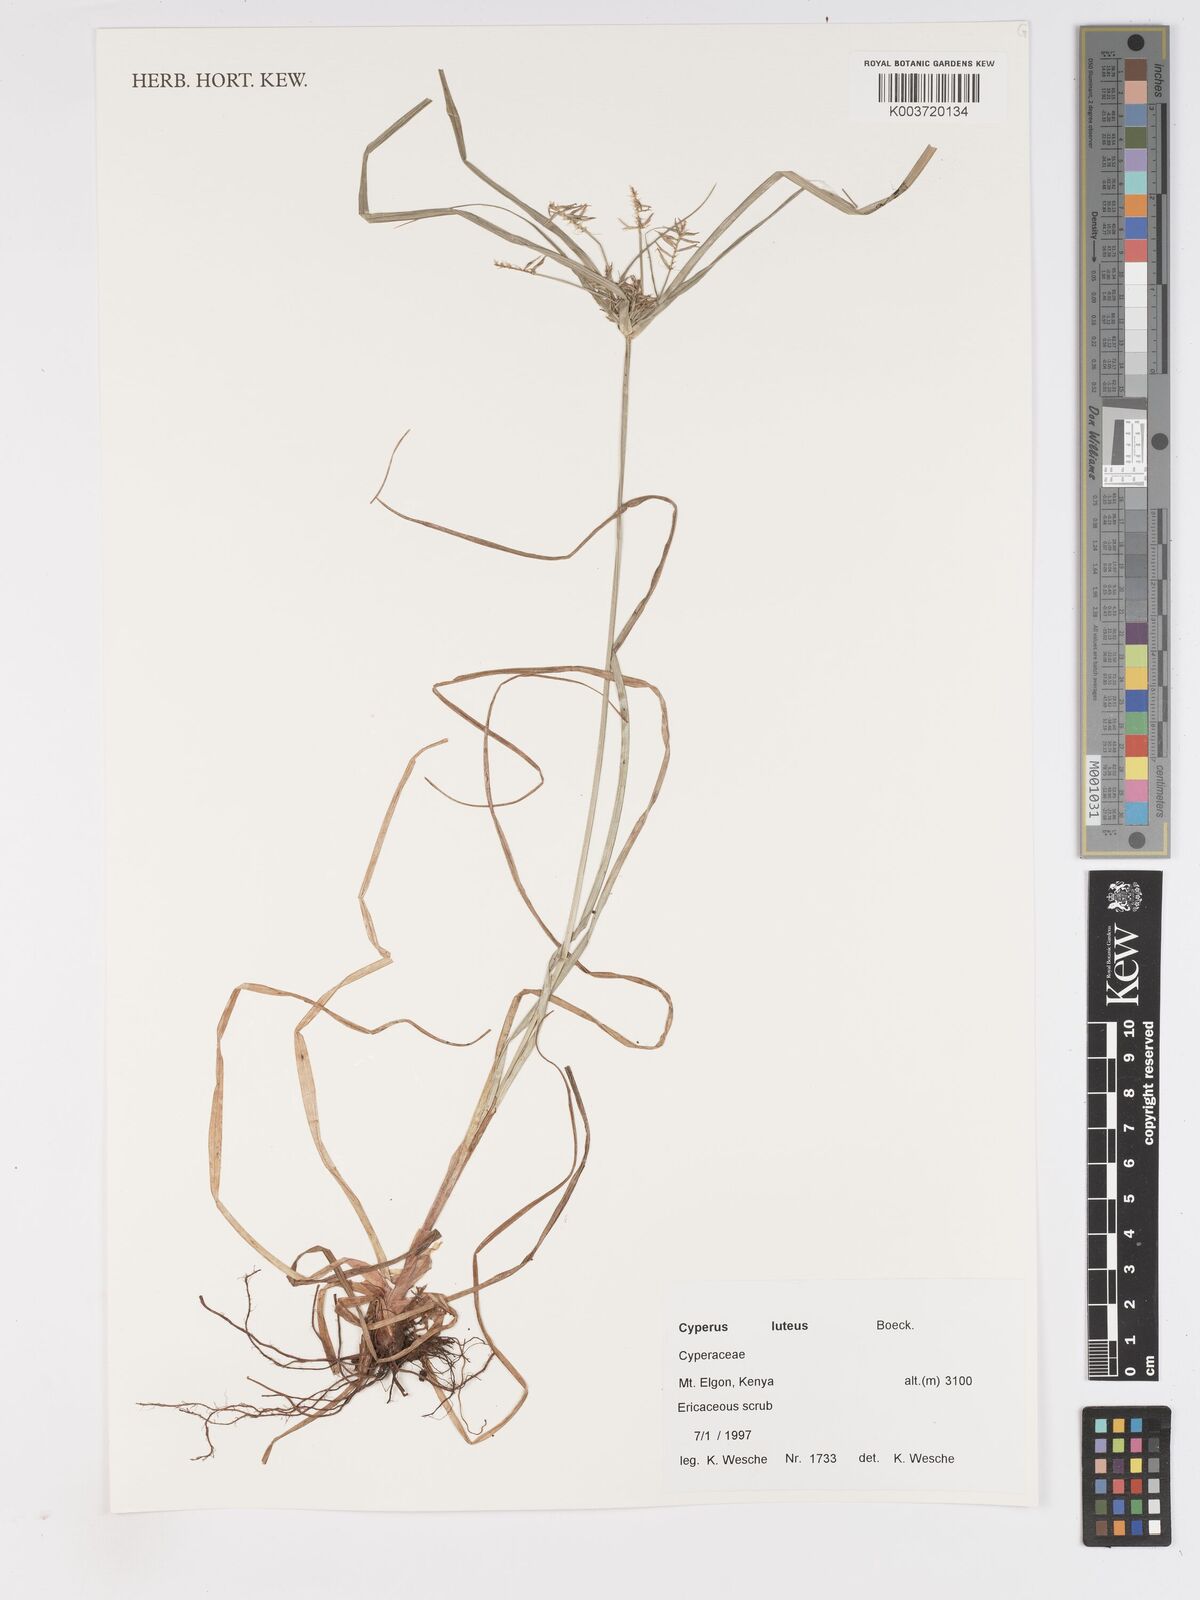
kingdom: Plantae
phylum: Tracheophyta
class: Liliopsida
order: Poales
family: Cyperaceae
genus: Cyperus
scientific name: Cyperus luteus
